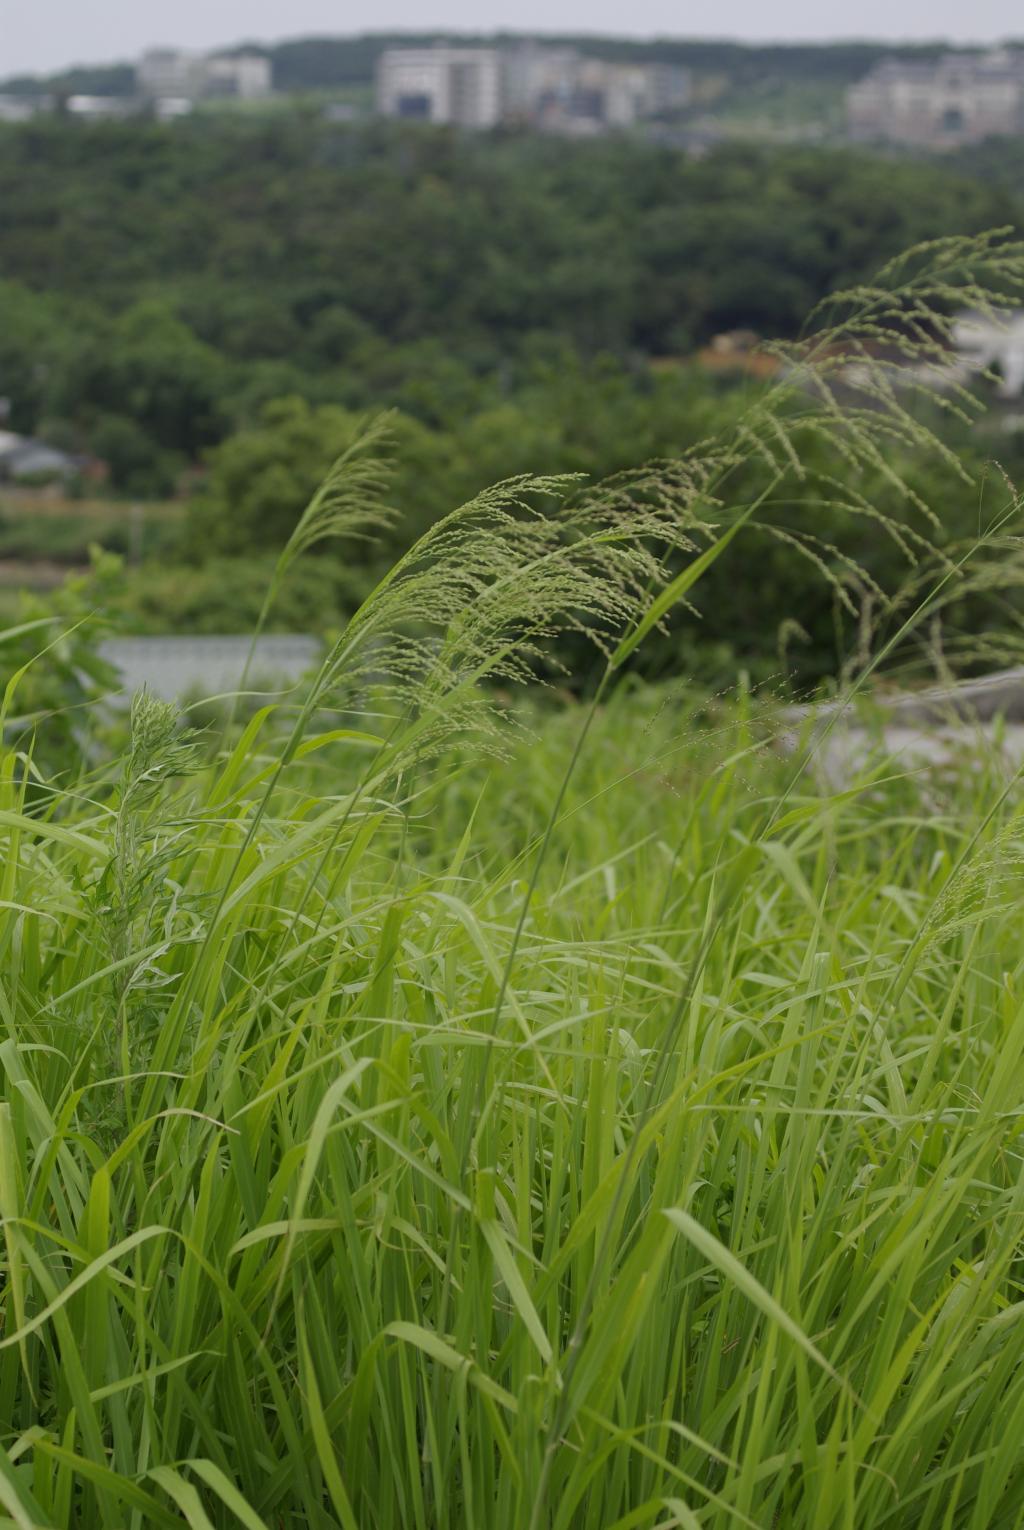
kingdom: Plantae
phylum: Tracheophyta
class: Liliopsida
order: Poales
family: Poaceae
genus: Megathyrsus
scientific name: Megathyrsus maximus
